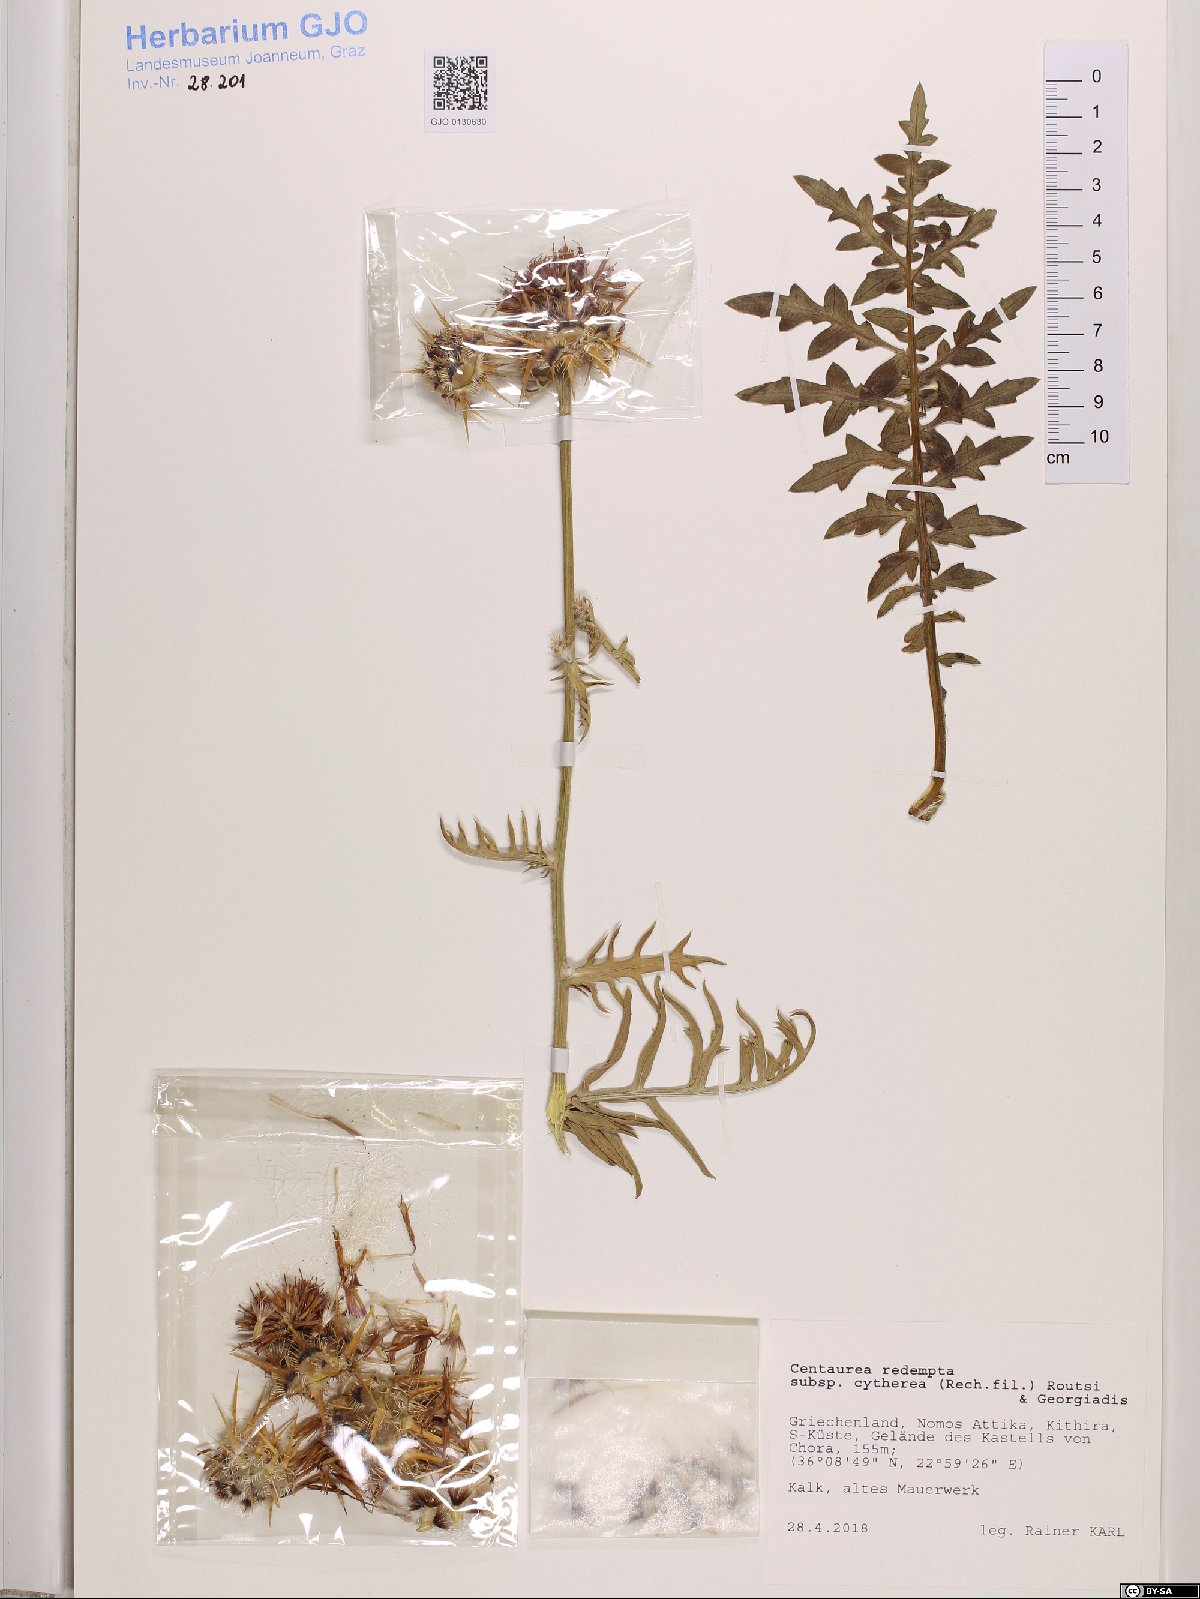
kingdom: Plantae
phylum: Tracheophyta
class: Magnoliopsida
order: Asterales
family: Asteraceae
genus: Centaurea
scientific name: Centaurea redempta
